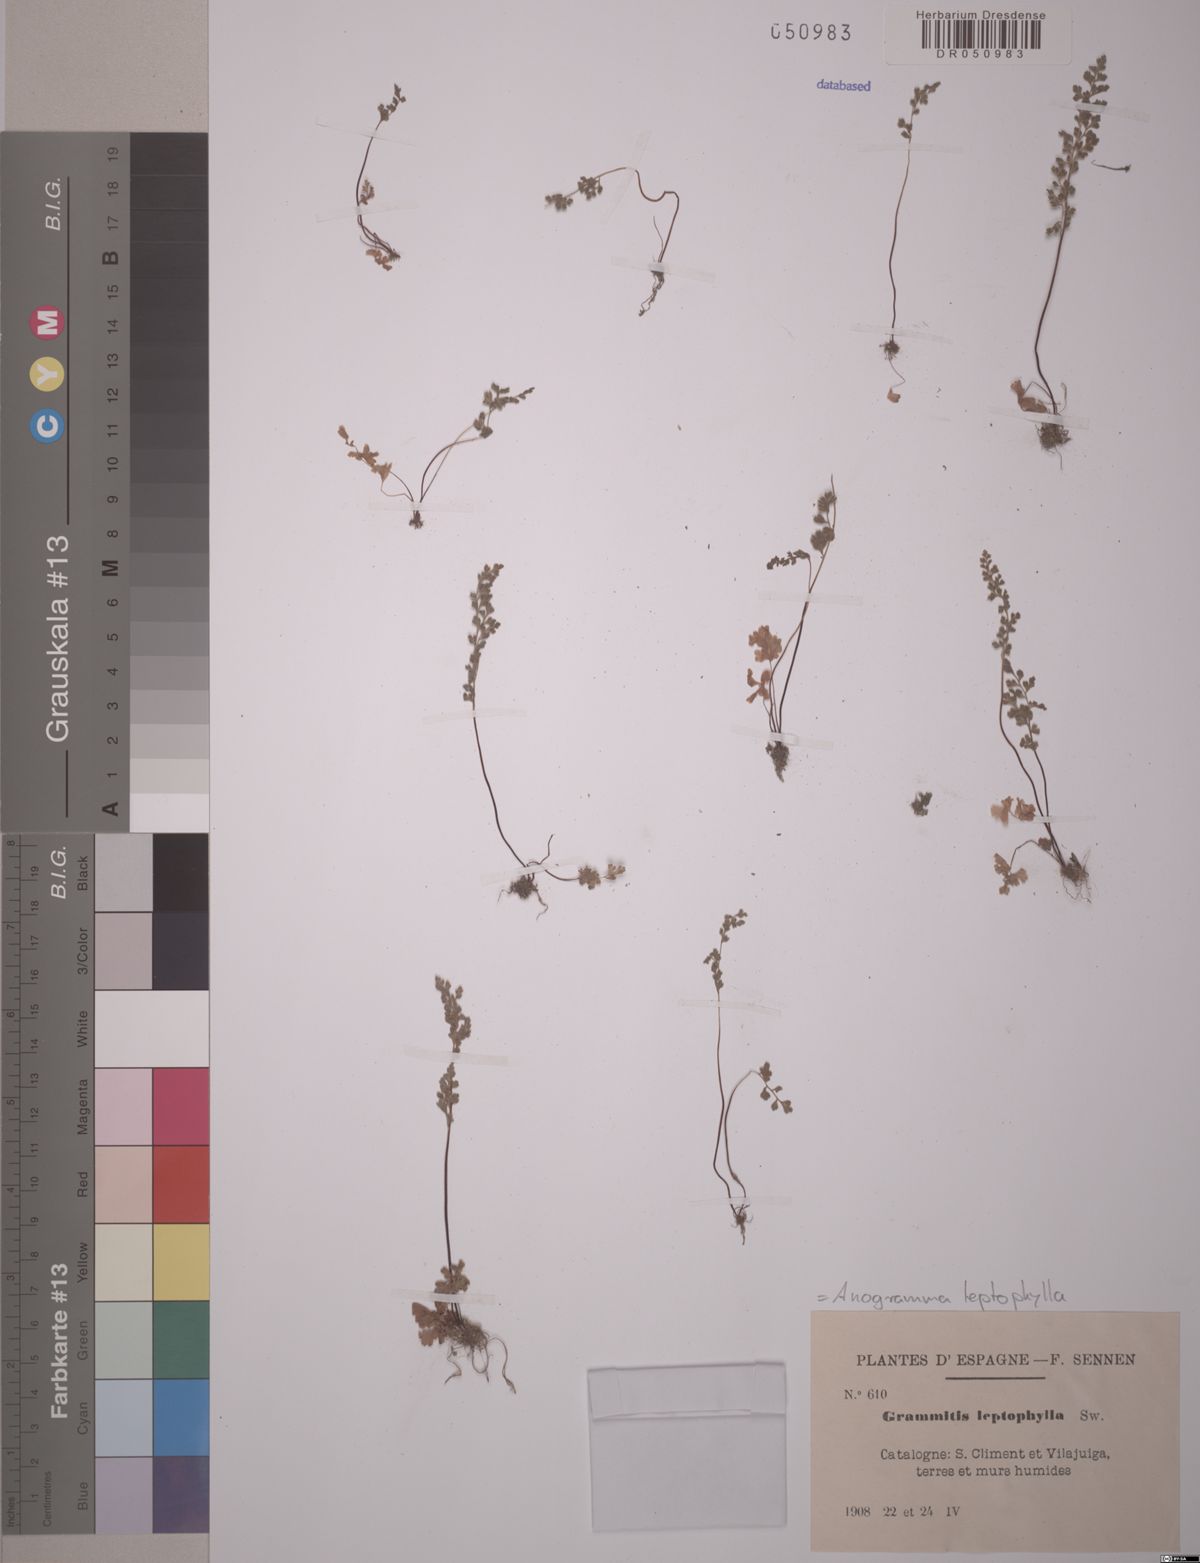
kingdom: Plantae
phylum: Tracheophyta
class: Polypodiopsida
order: Polypodiales
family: Pteridaceae
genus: Anogramma
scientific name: Anogramma leptophylla
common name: Jersey fern
